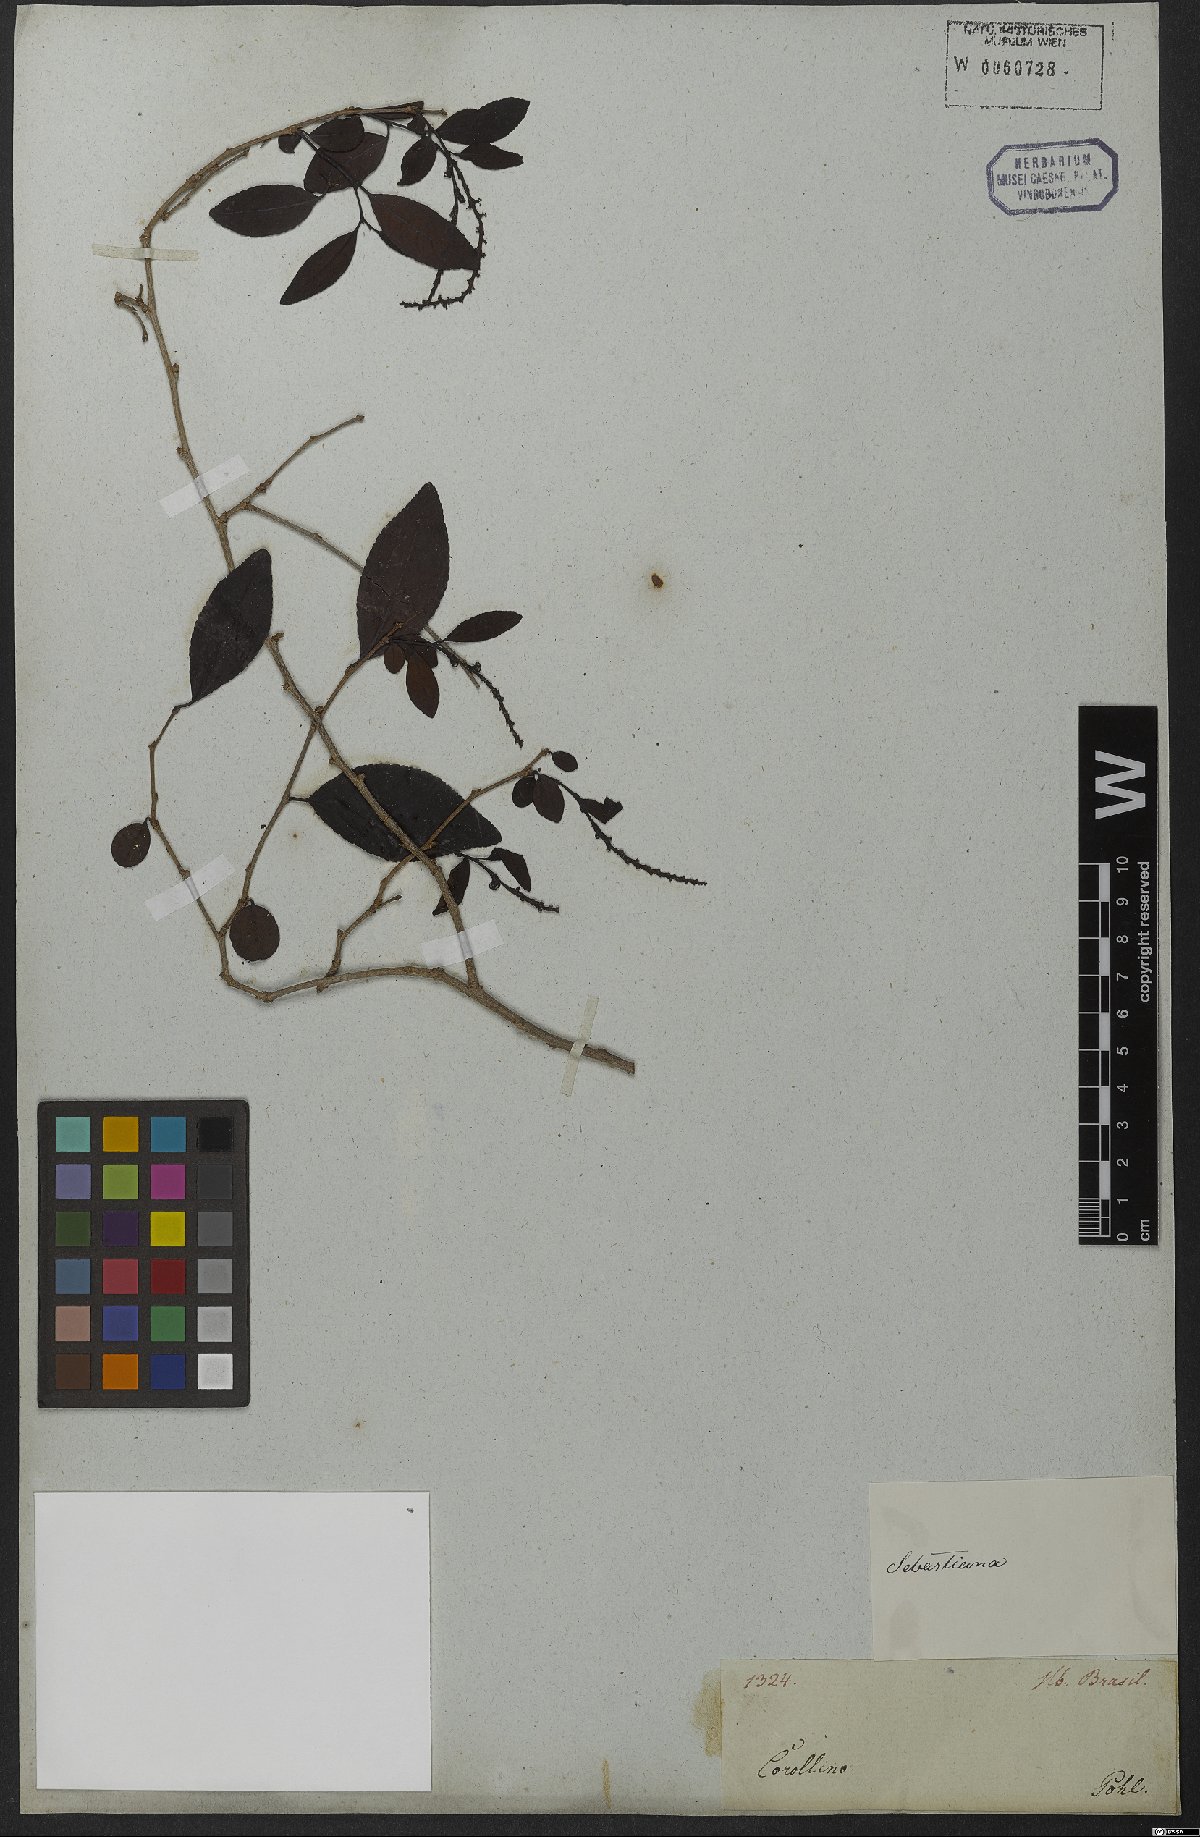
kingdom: Plantae
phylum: Tracheophyta
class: Magnoliopsida
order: Malpighiales
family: Euphorbiaceae
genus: Sebastiania
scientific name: Sebastiania ramosissima
